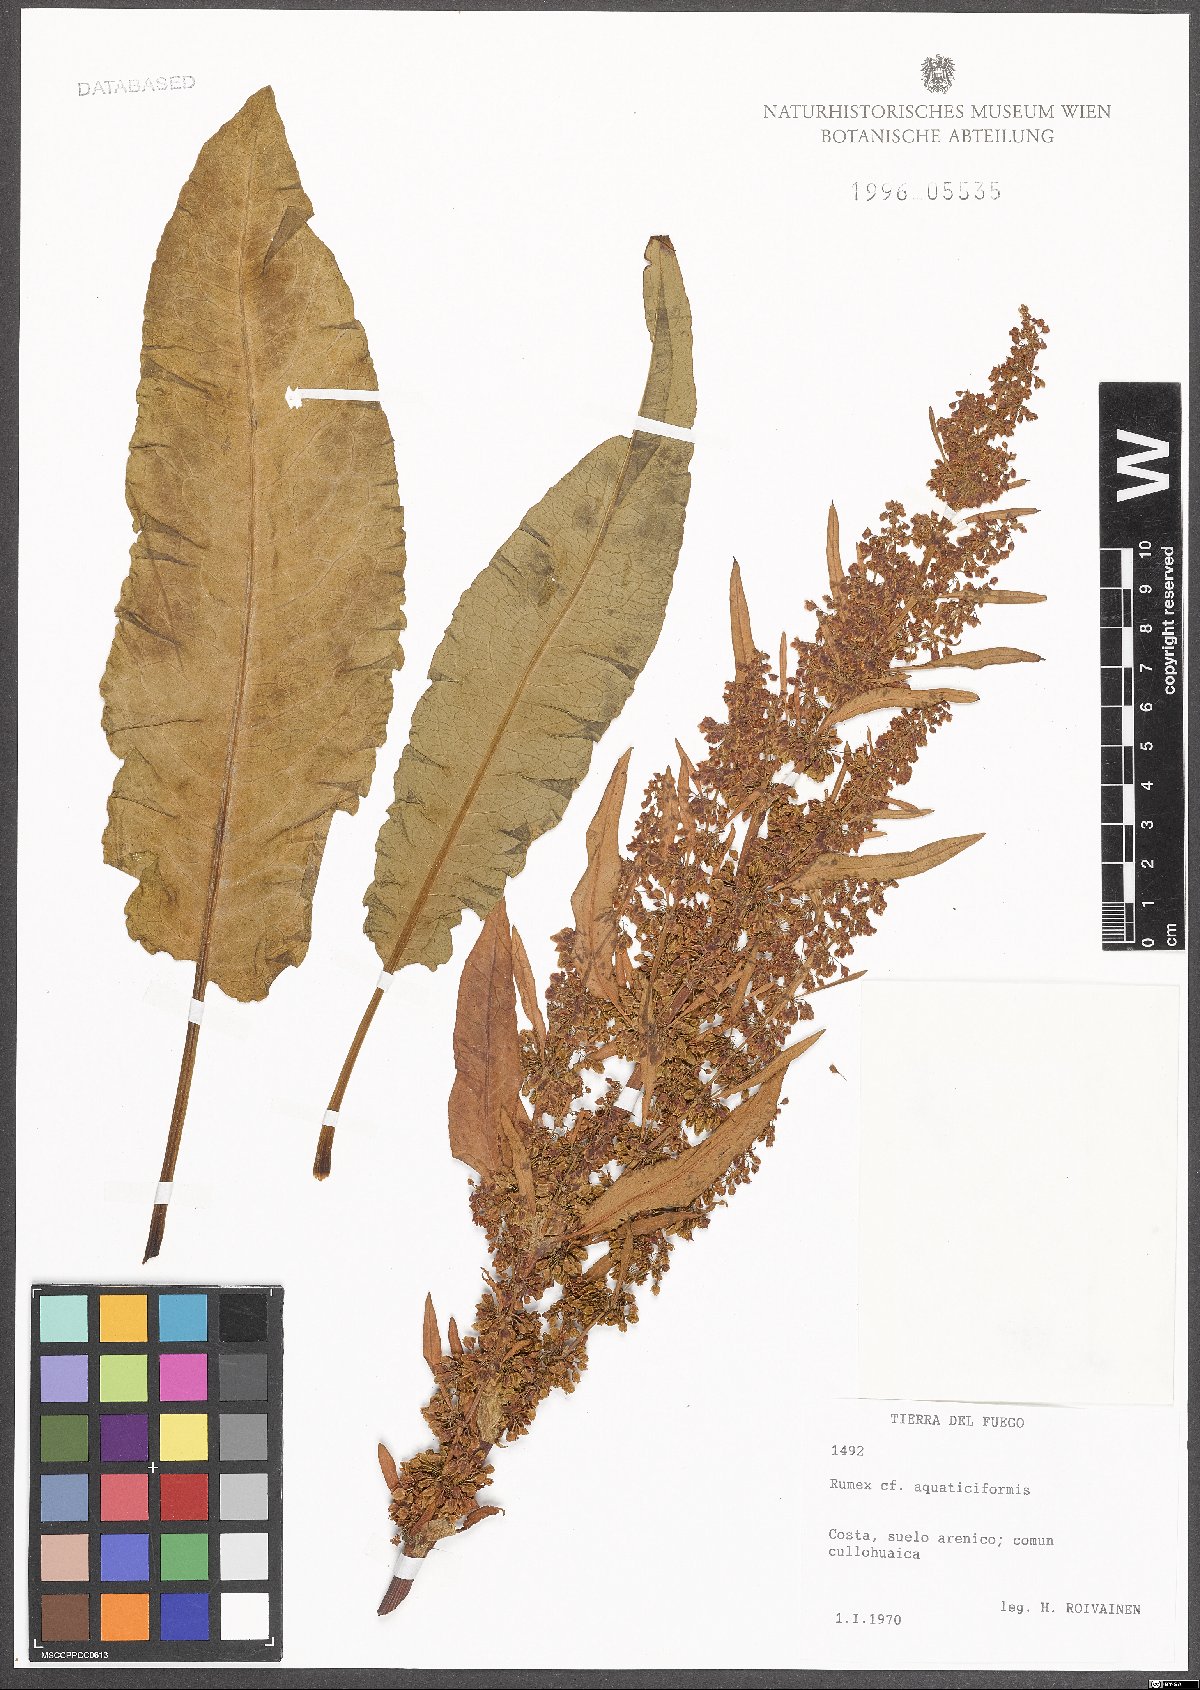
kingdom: Plantae
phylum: Tracheophyta
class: Magnoliopsida
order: Caryophyllales
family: Polygonaceae
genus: Rumex
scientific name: Rumex aquaticiformis
